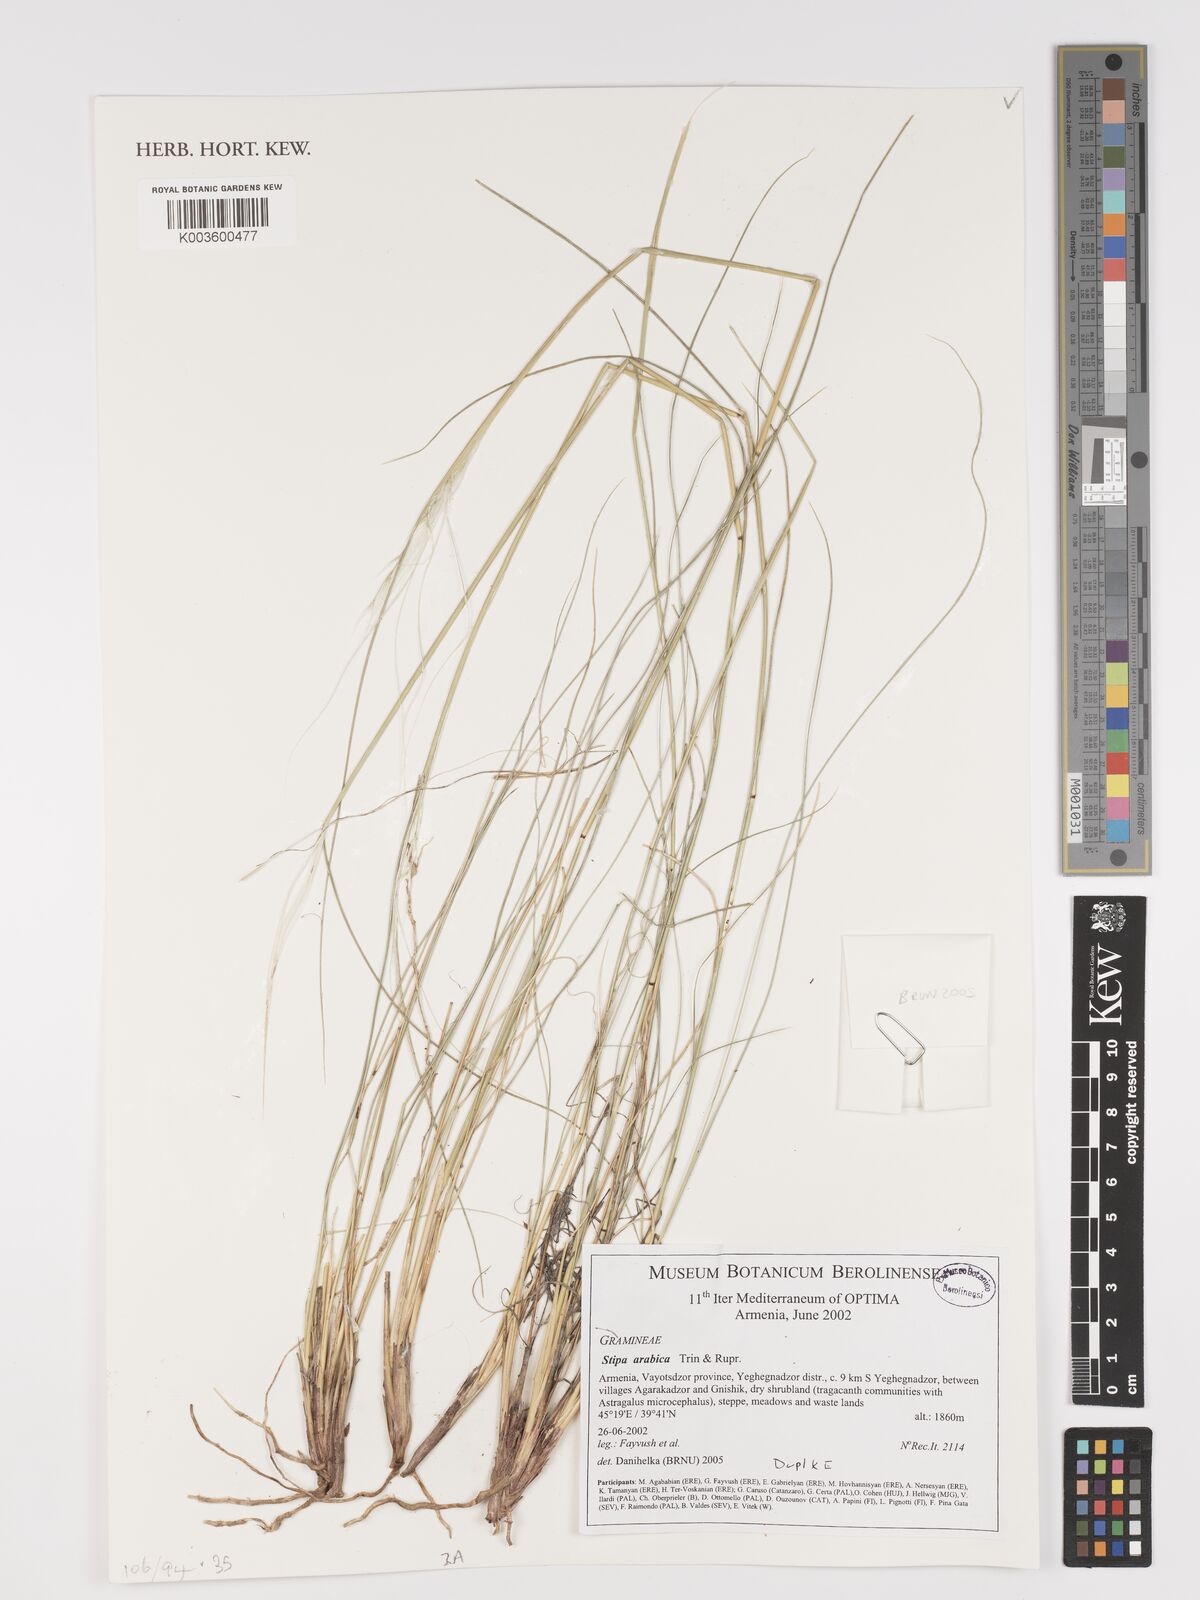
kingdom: Plantae
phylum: Tracheophyta
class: Liliopsida
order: Poales
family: Poaceae
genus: Stipa
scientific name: Stipa arabica
